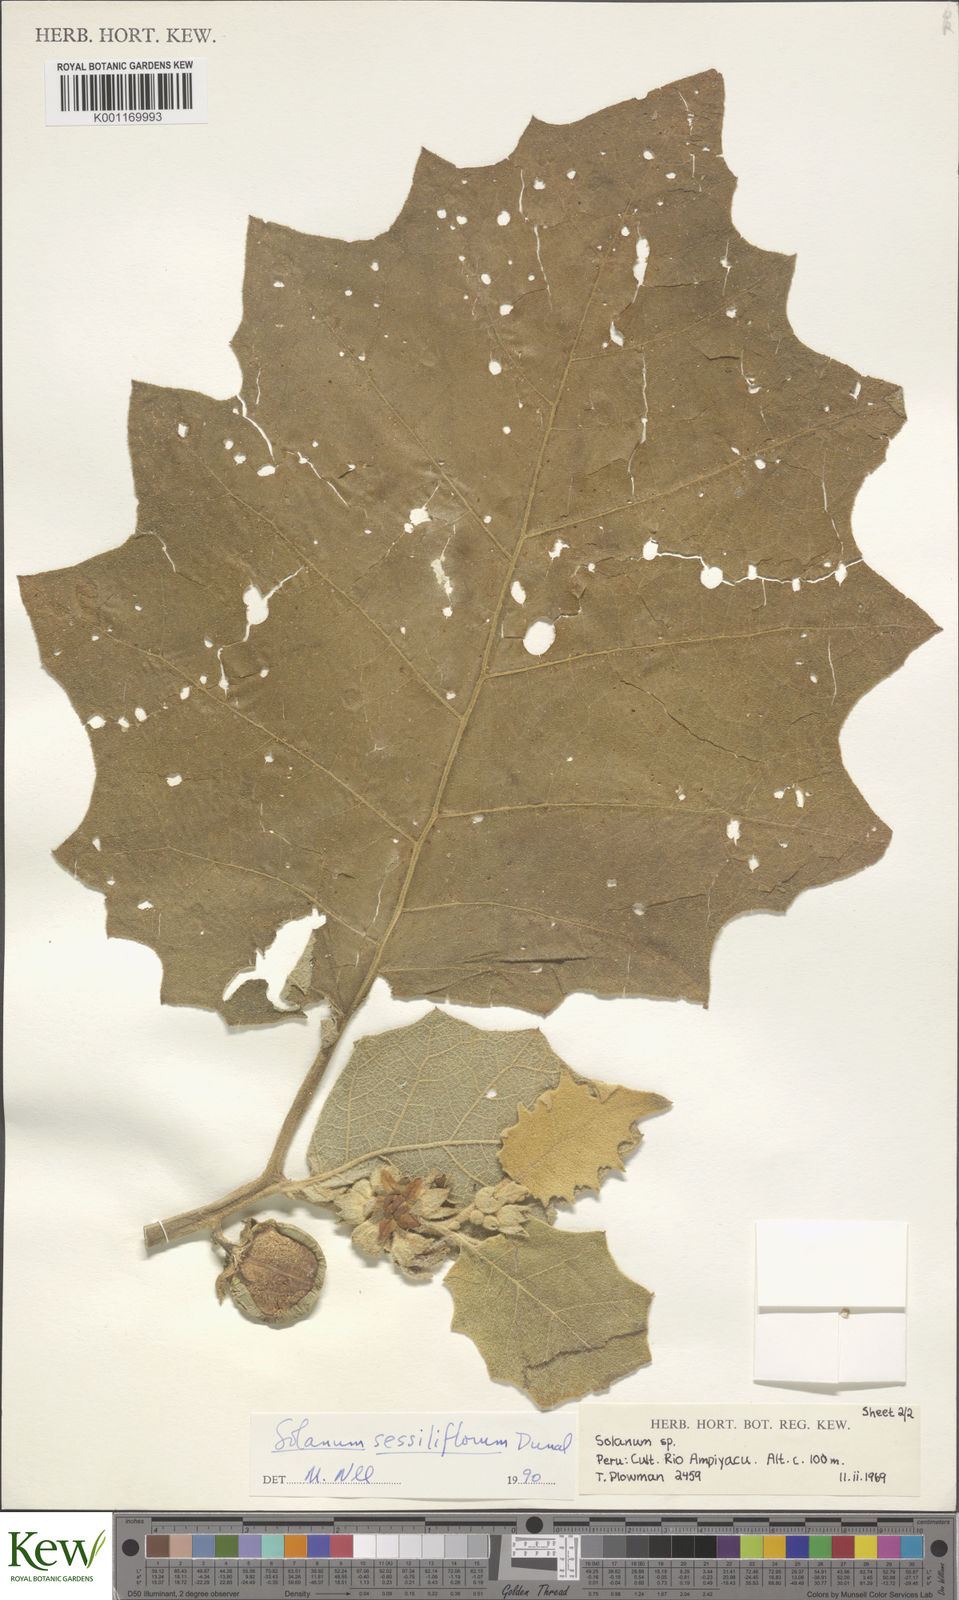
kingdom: Plantae
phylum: Tracheophyta
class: Magnoliopsida
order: Solanales
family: Solanaceae
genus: Solanum
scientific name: Solanum sessiliflorum
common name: Orinoco-apple
